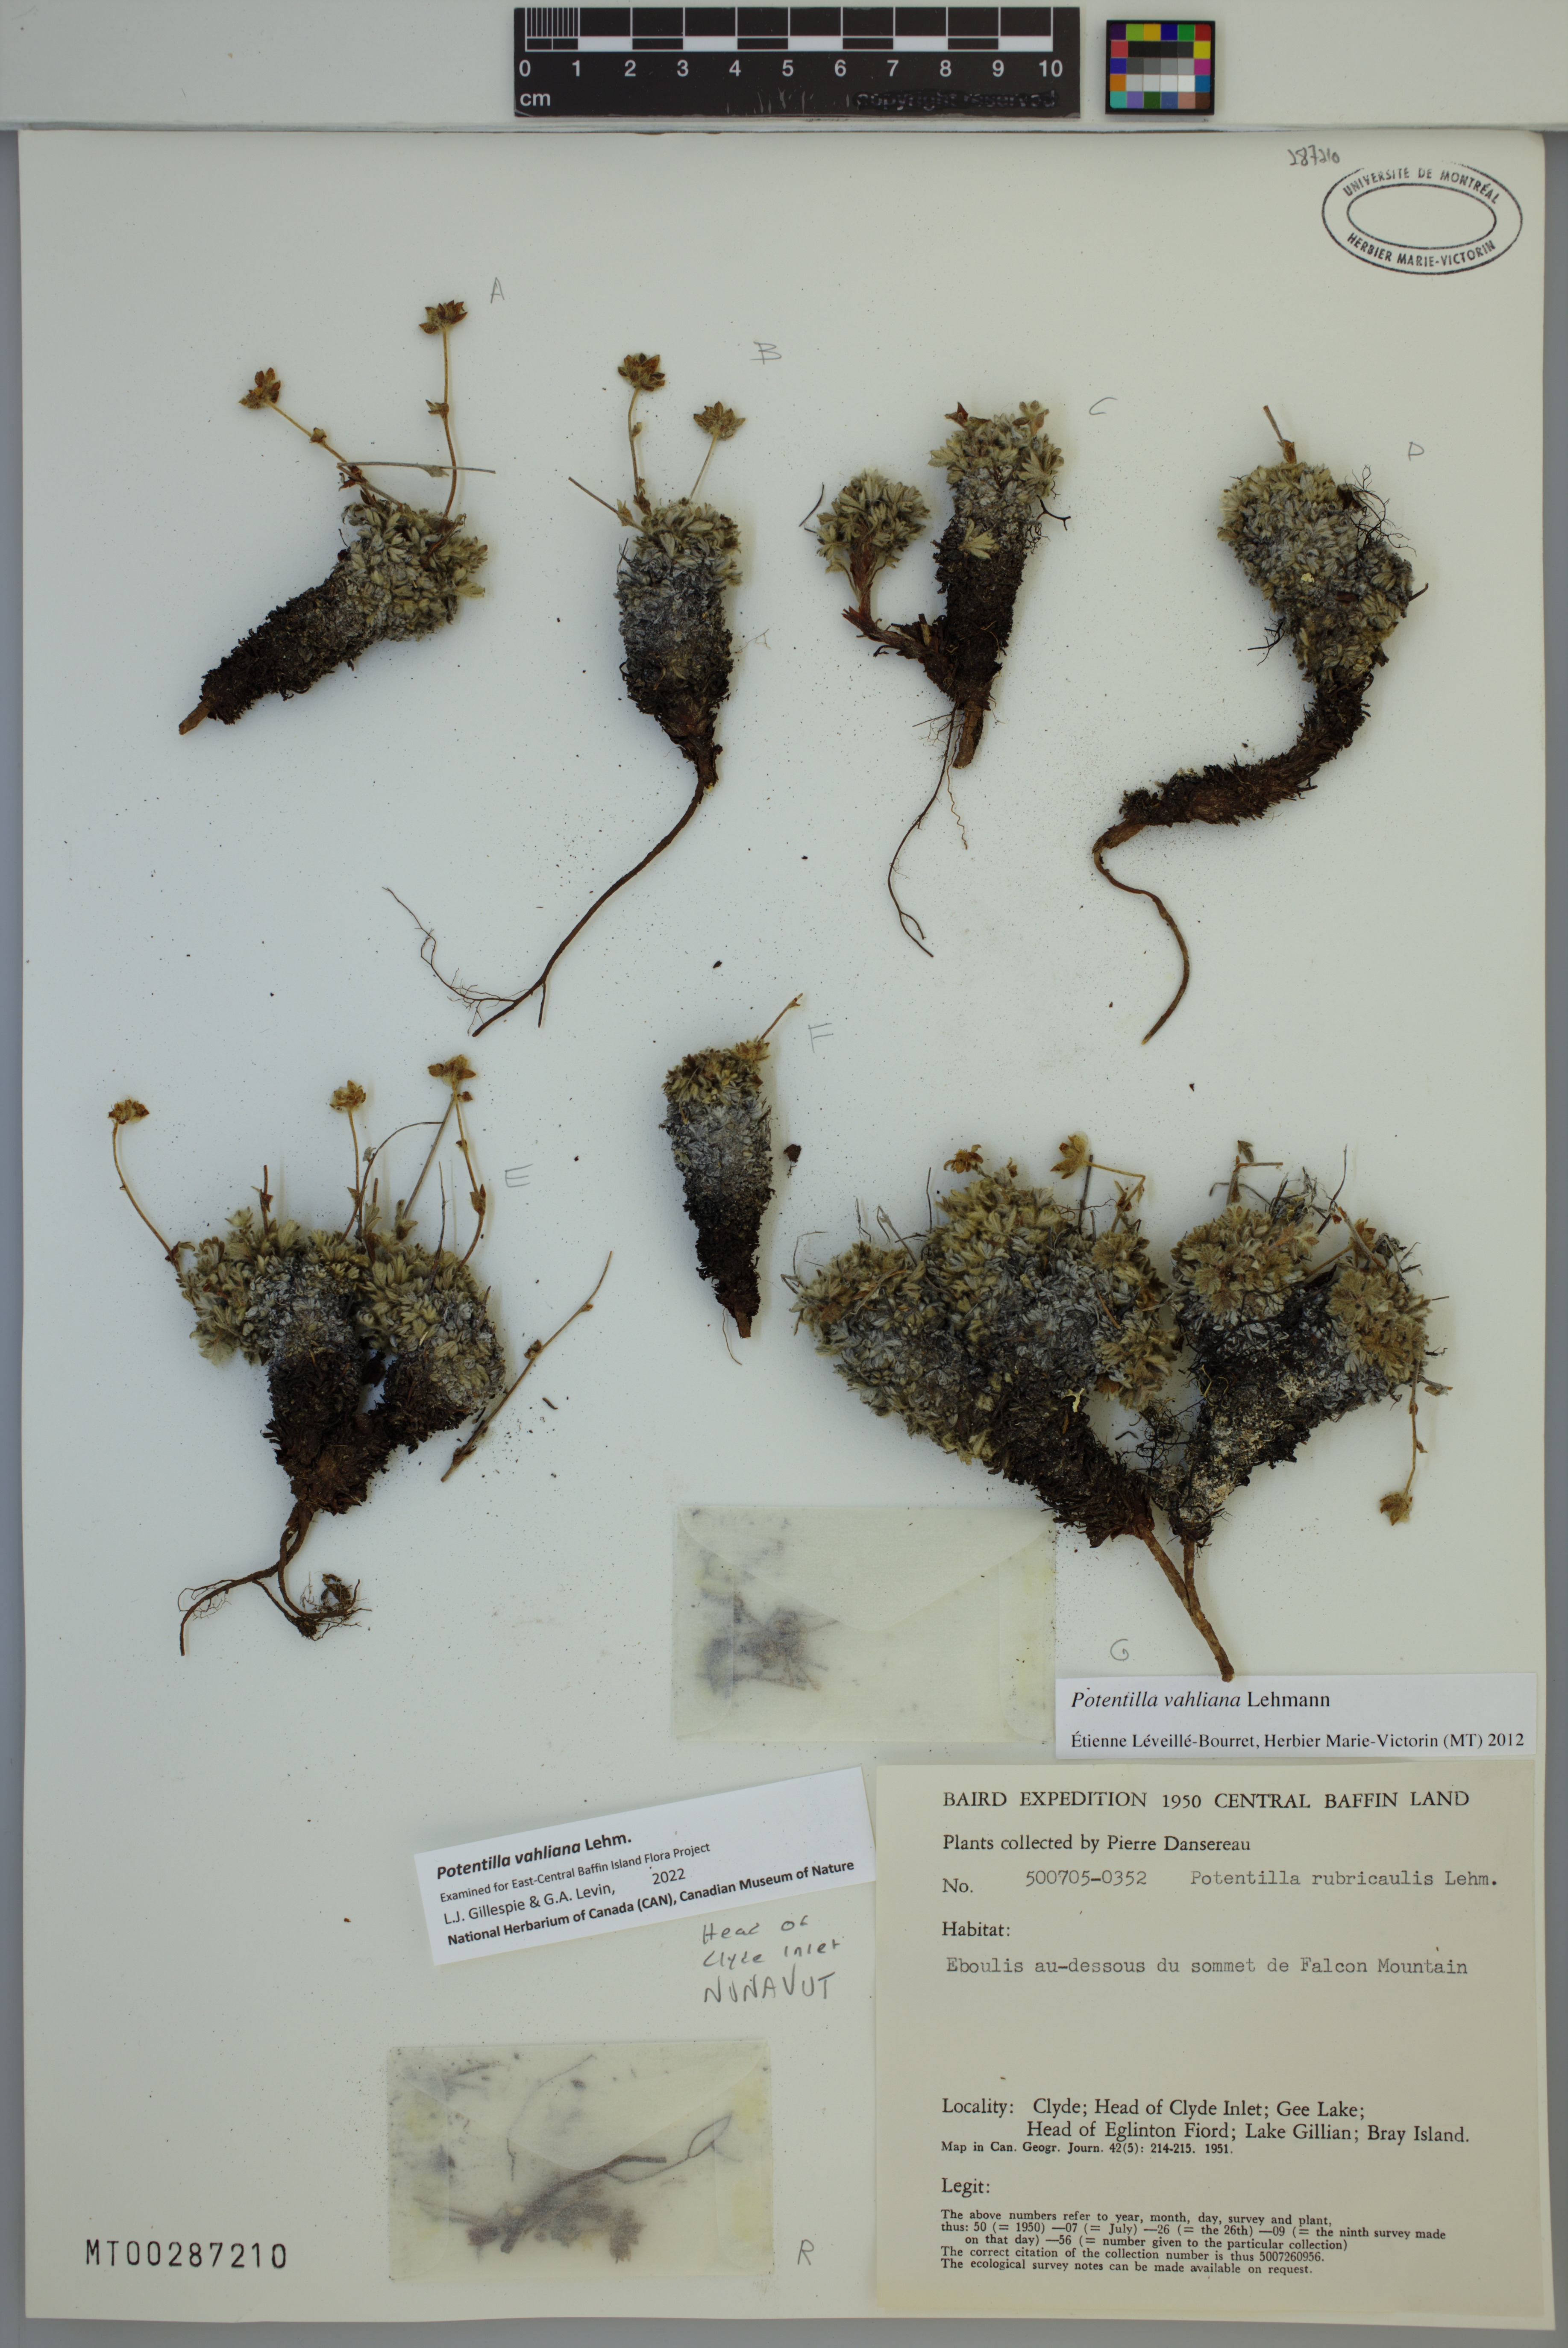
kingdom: Plantae
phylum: Tracheophyta
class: Magnoliopsida
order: Rosales
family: Rosaceae
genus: Potentilla
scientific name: Potentilla vahliana
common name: Vahl's cinquefoil
